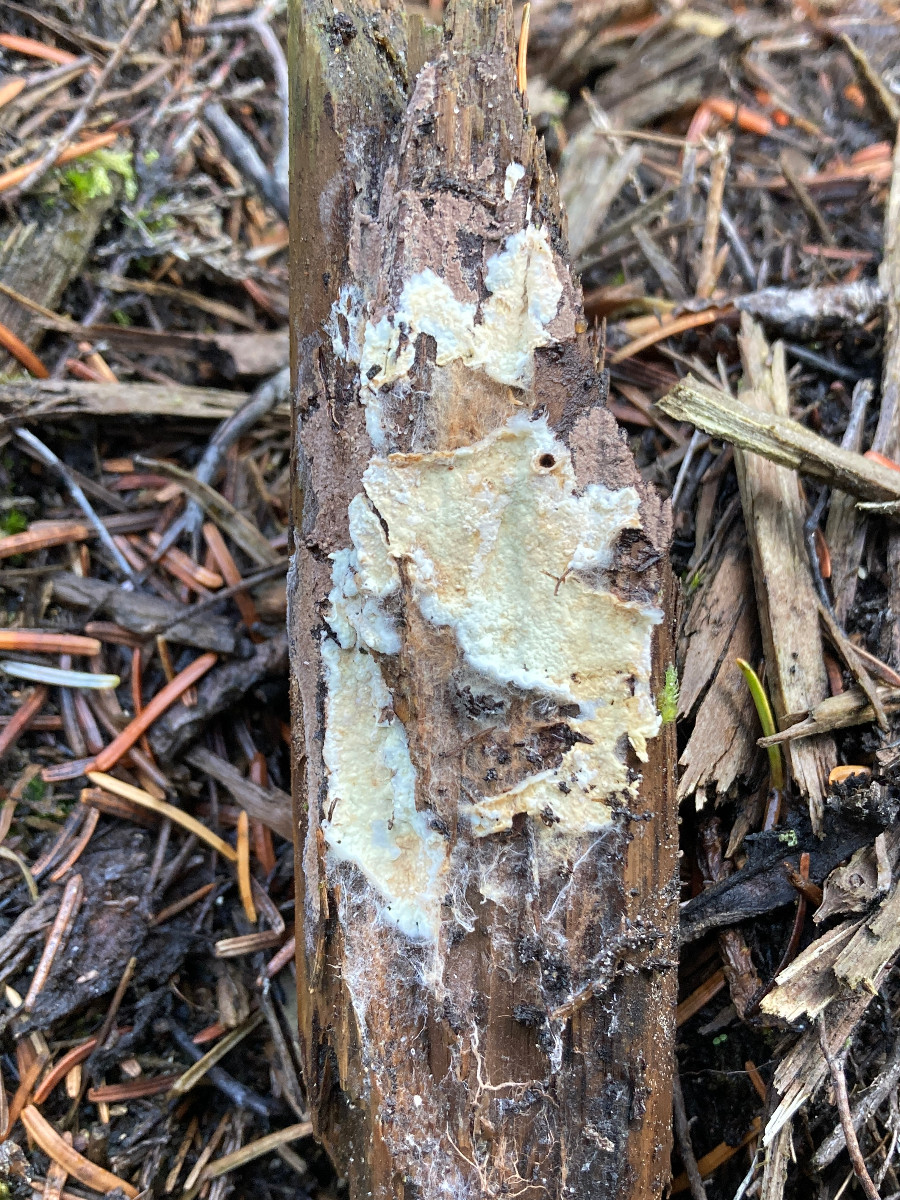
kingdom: Fungi
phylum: Basidiomycota
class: Agaricomycetes
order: Corticiales
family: Corticiaceae
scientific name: Corticiaceae
